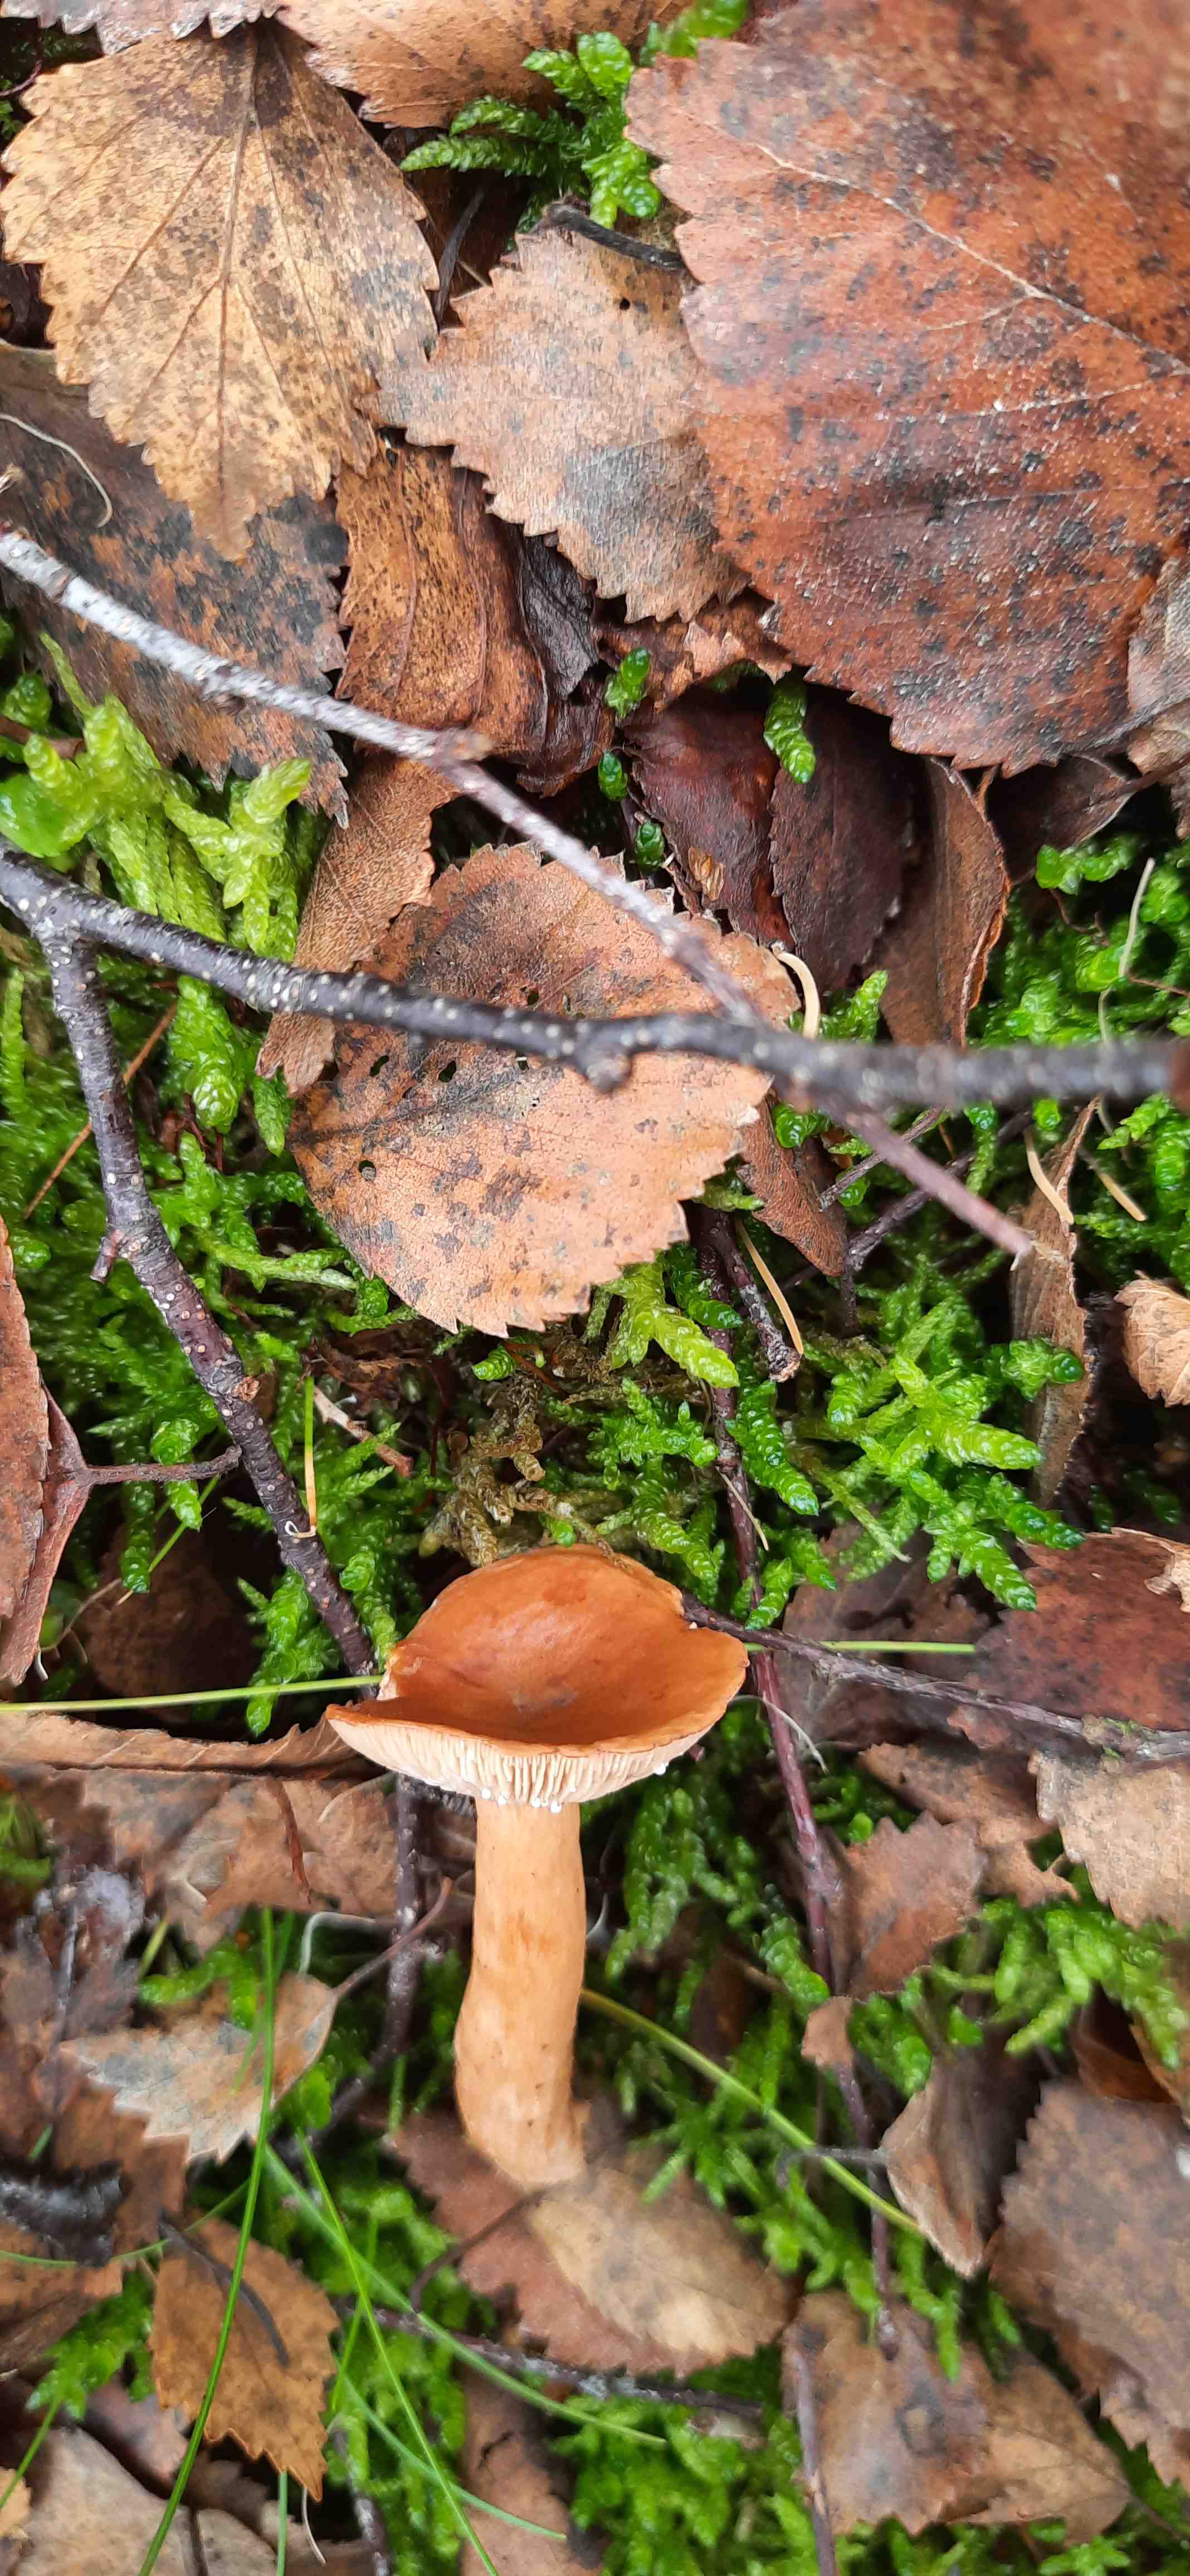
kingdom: Fungi
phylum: Basidiomycota
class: Agaricomycetes
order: Russulales
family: Russulaceae
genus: Lactarius
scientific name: Lactarius tabidus
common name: rynket mælkehat
